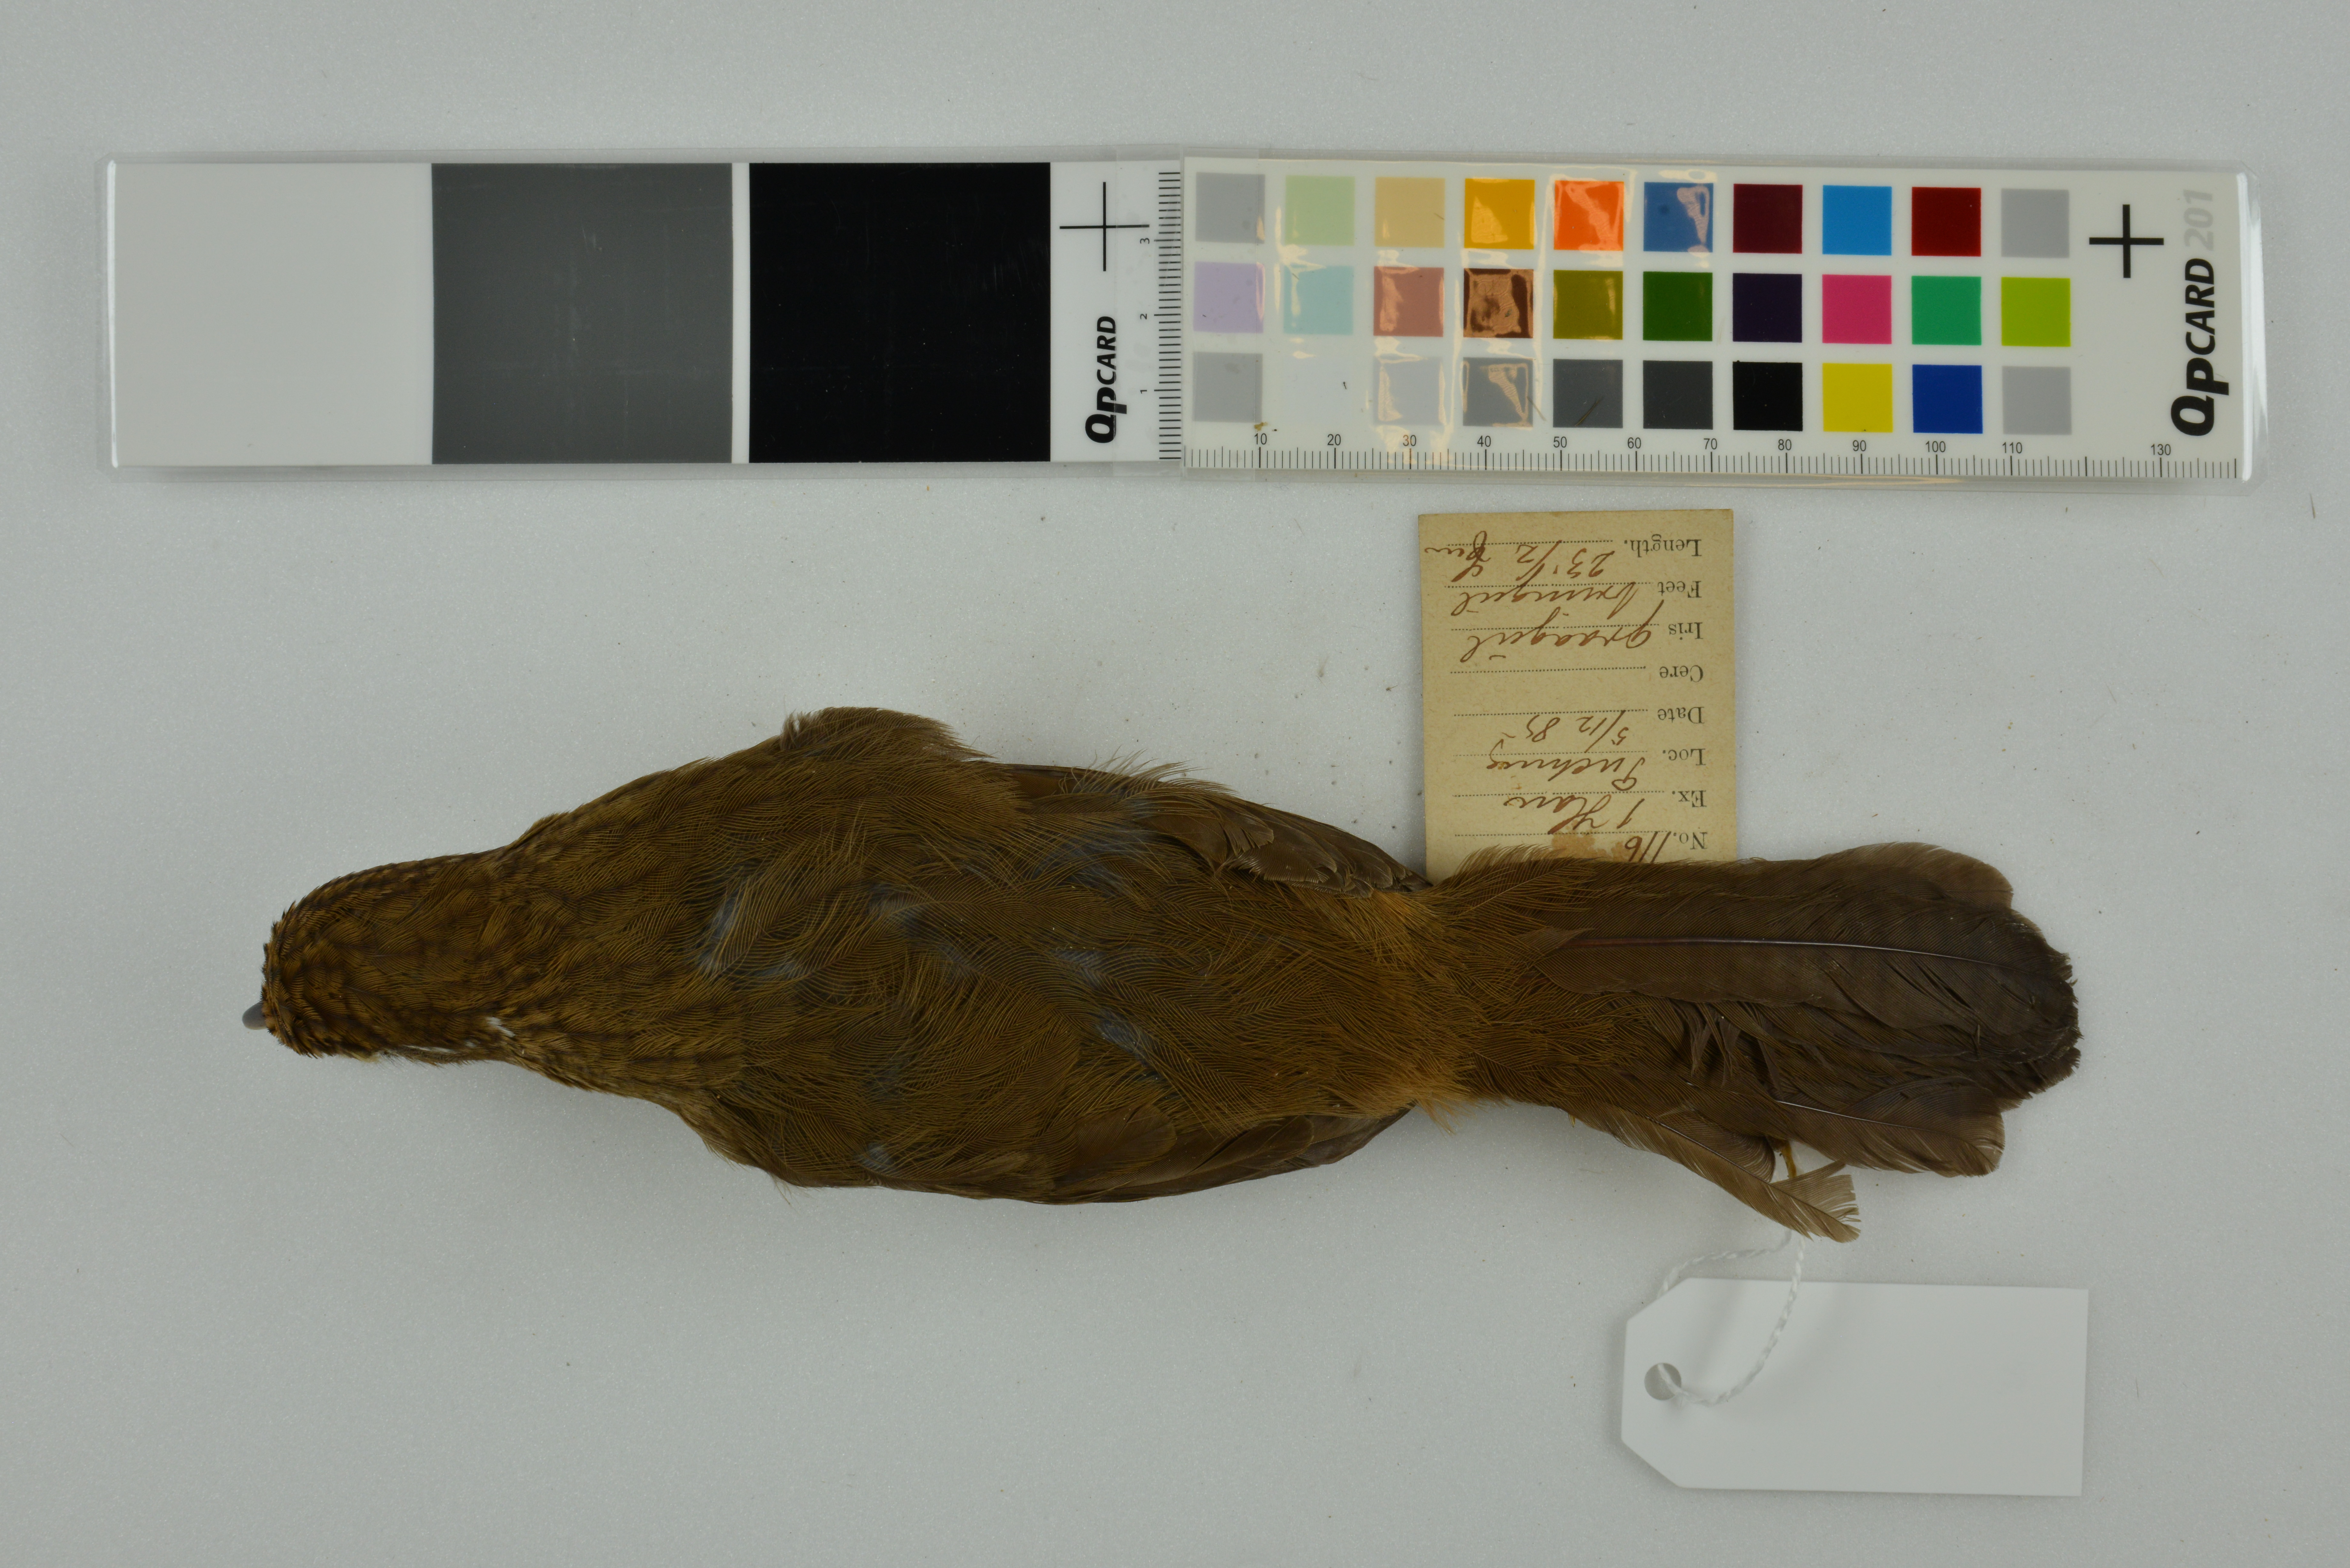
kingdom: Animalia
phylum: Chordata
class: Aves
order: Passeriformes
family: Leiothrichidae
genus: Garrulax
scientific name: Garrulax canorus
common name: Chinese hwamei
